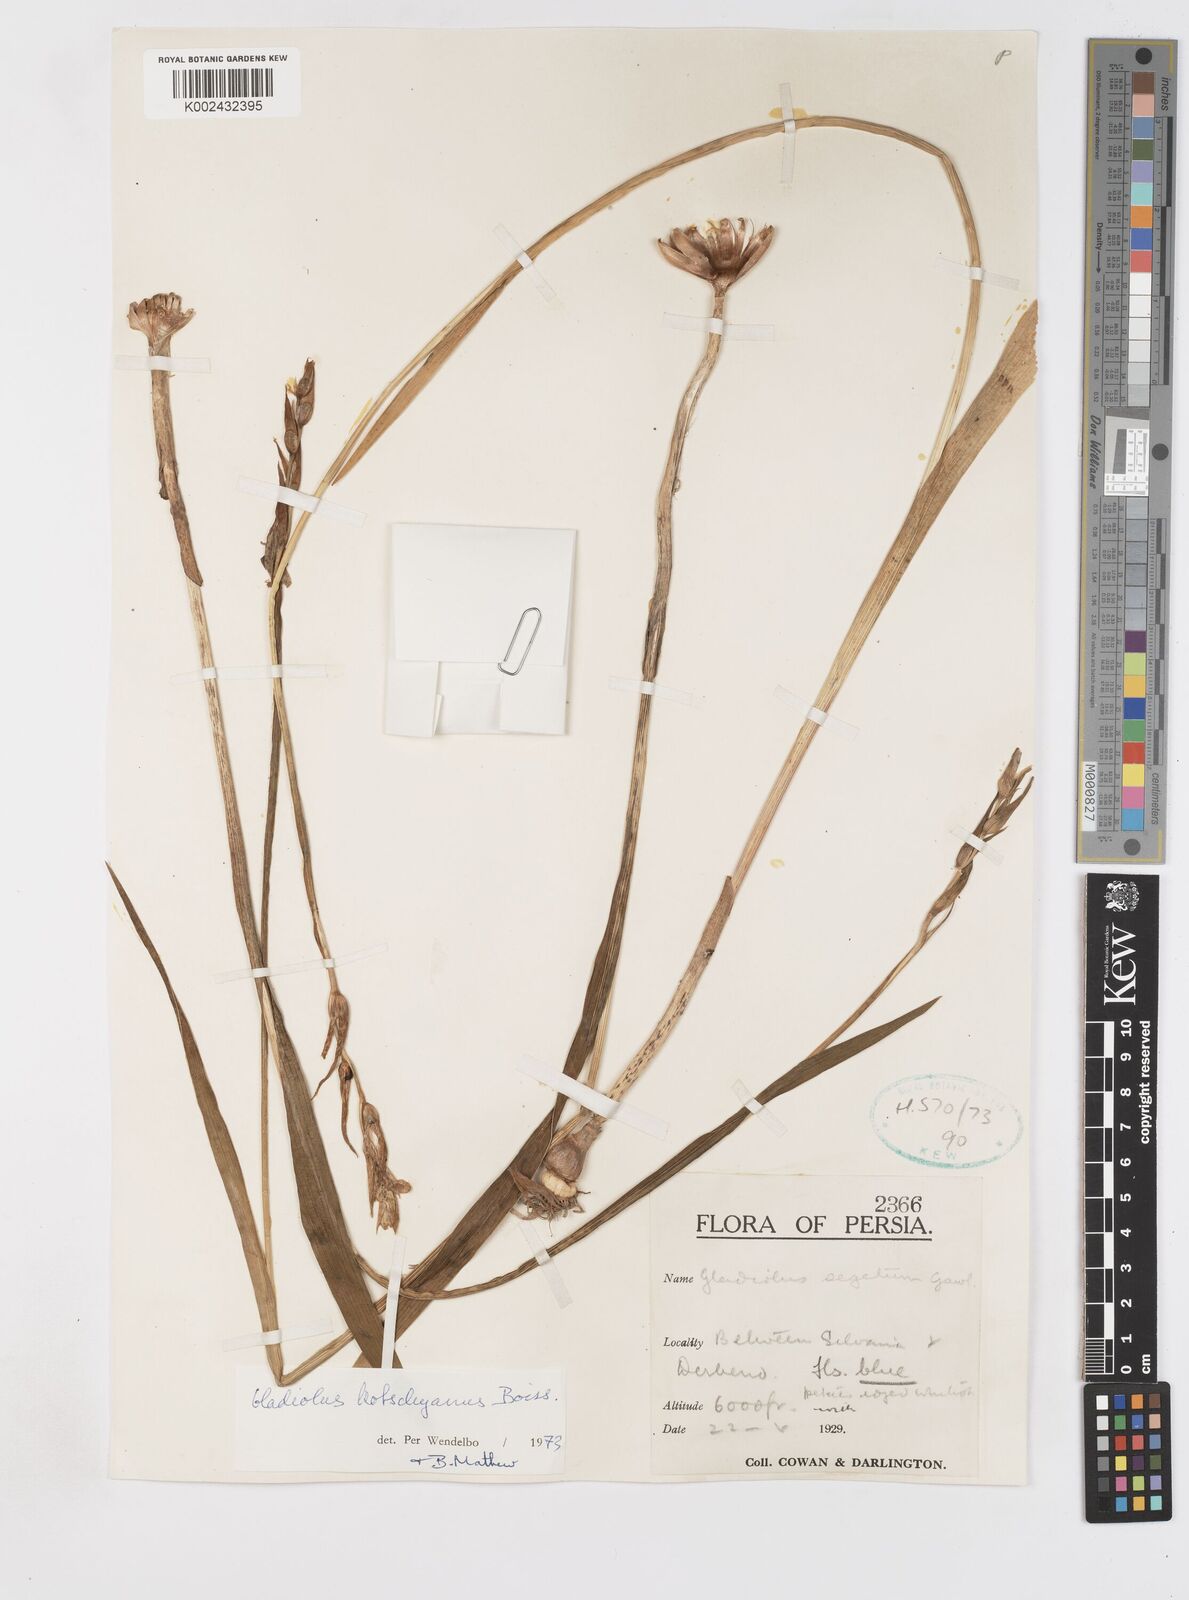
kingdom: Plantae
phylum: Tracheophyta
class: Liliopsida
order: Asparagales
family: Iridaceae
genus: Gladiolus
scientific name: Gladiolus kotschyanus
